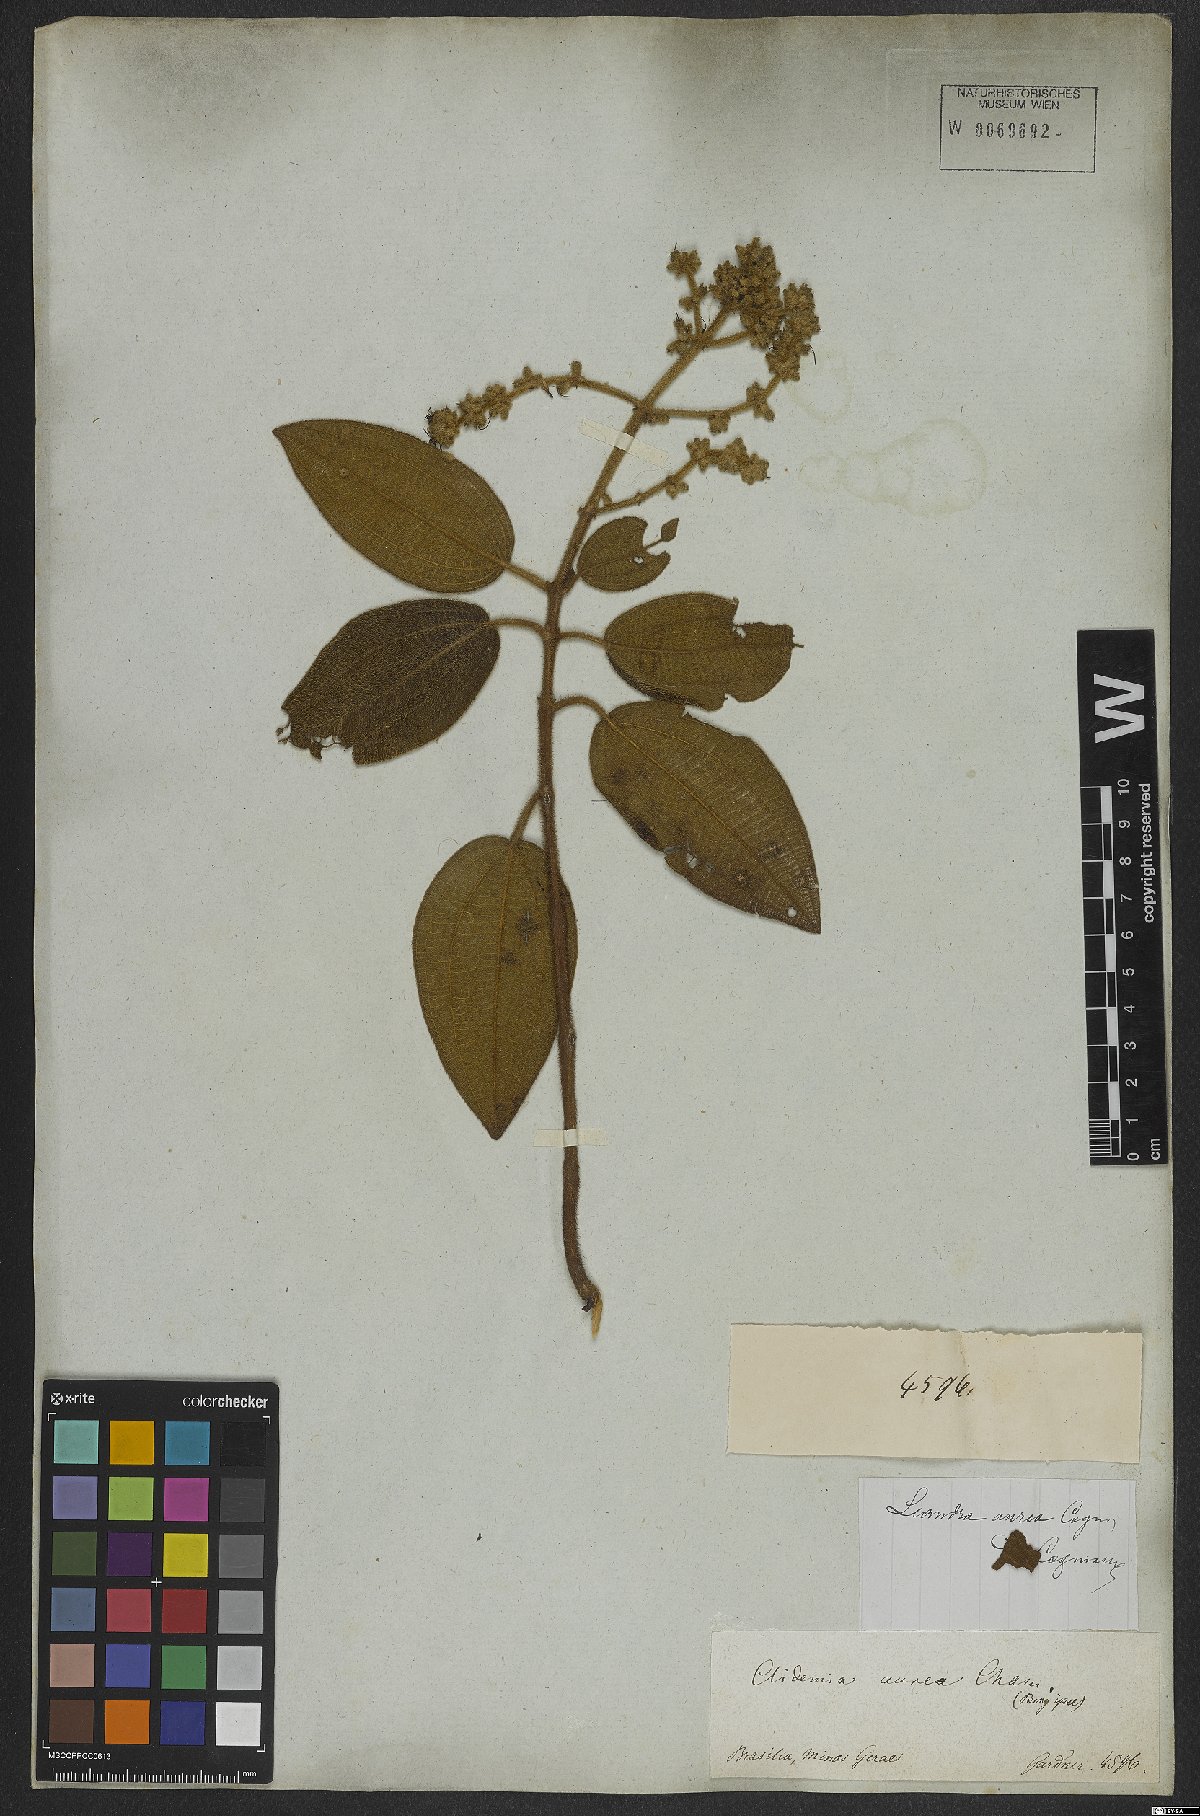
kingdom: Plantae
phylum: Tracheophyta
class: Magnoliopsida
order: Myrtales
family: Melastomataceae
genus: Miconia
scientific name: Miconia auricoma
